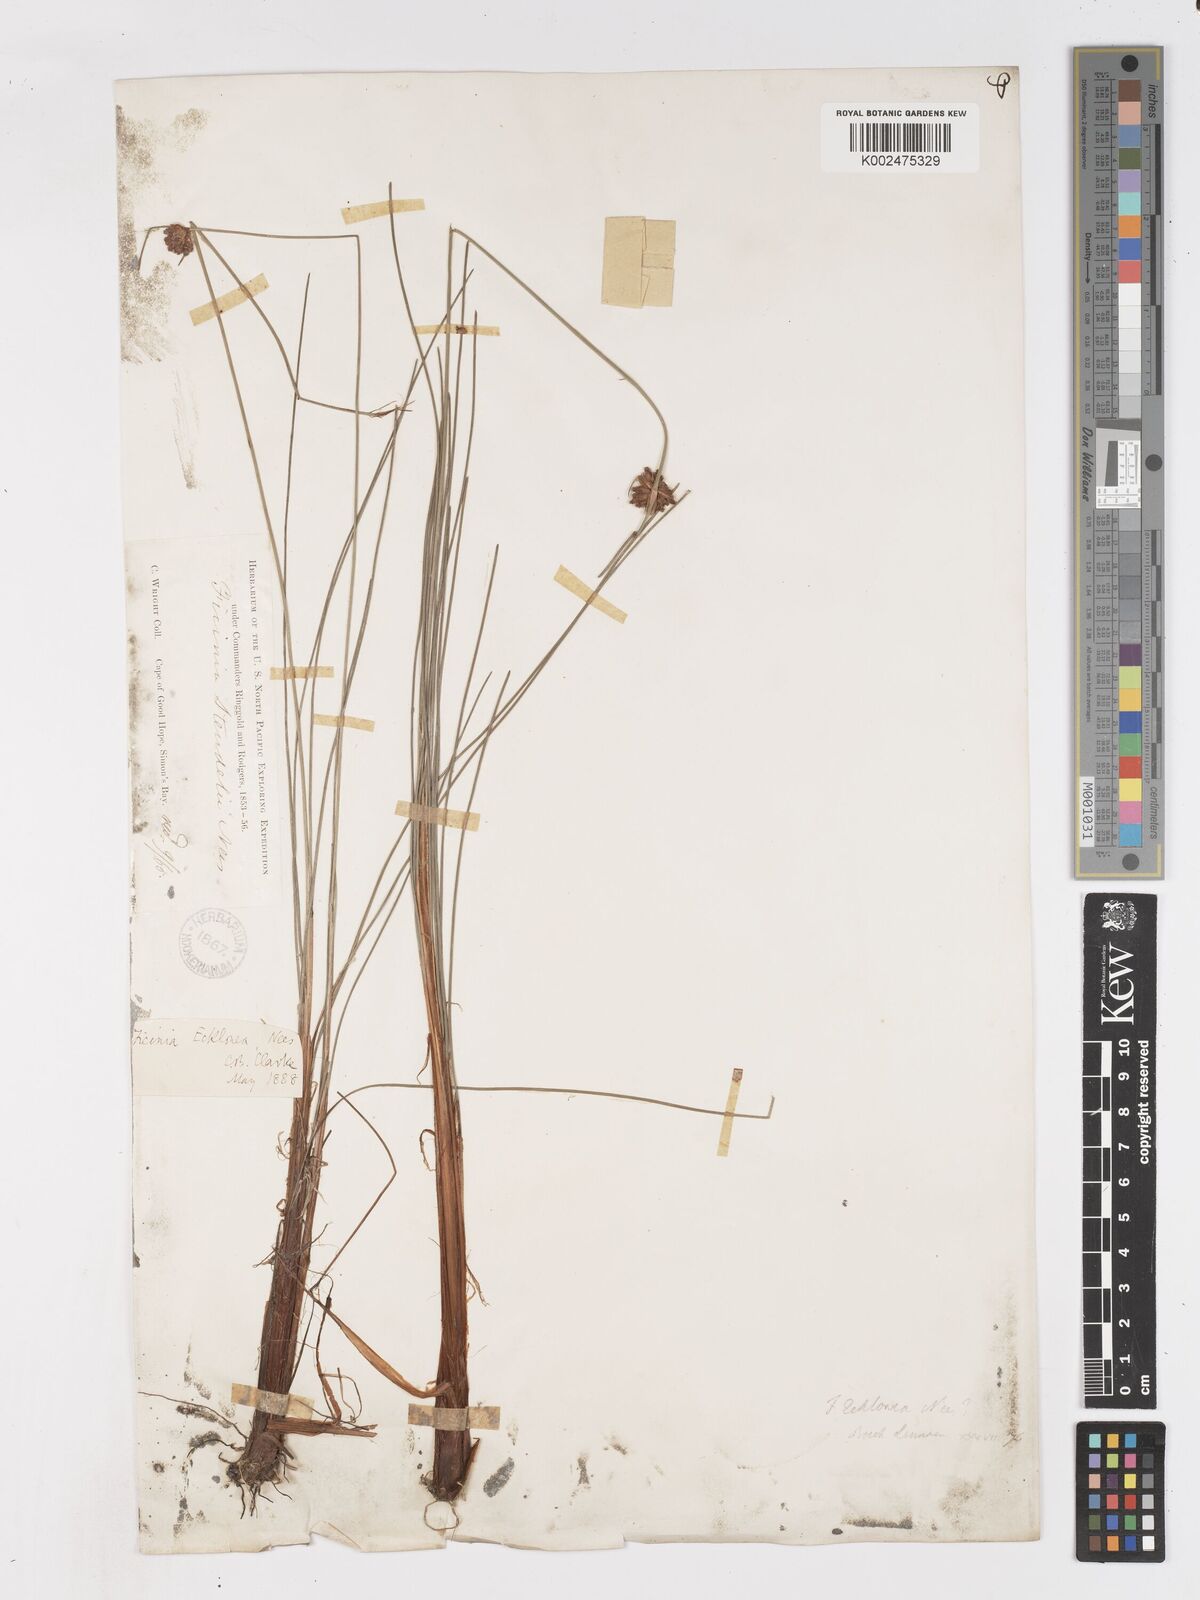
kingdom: Plantae
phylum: Tracheophyta
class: Liliopsida
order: Poales
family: Cyperaceae
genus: Ficinia
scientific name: Ficinia ecklonea
